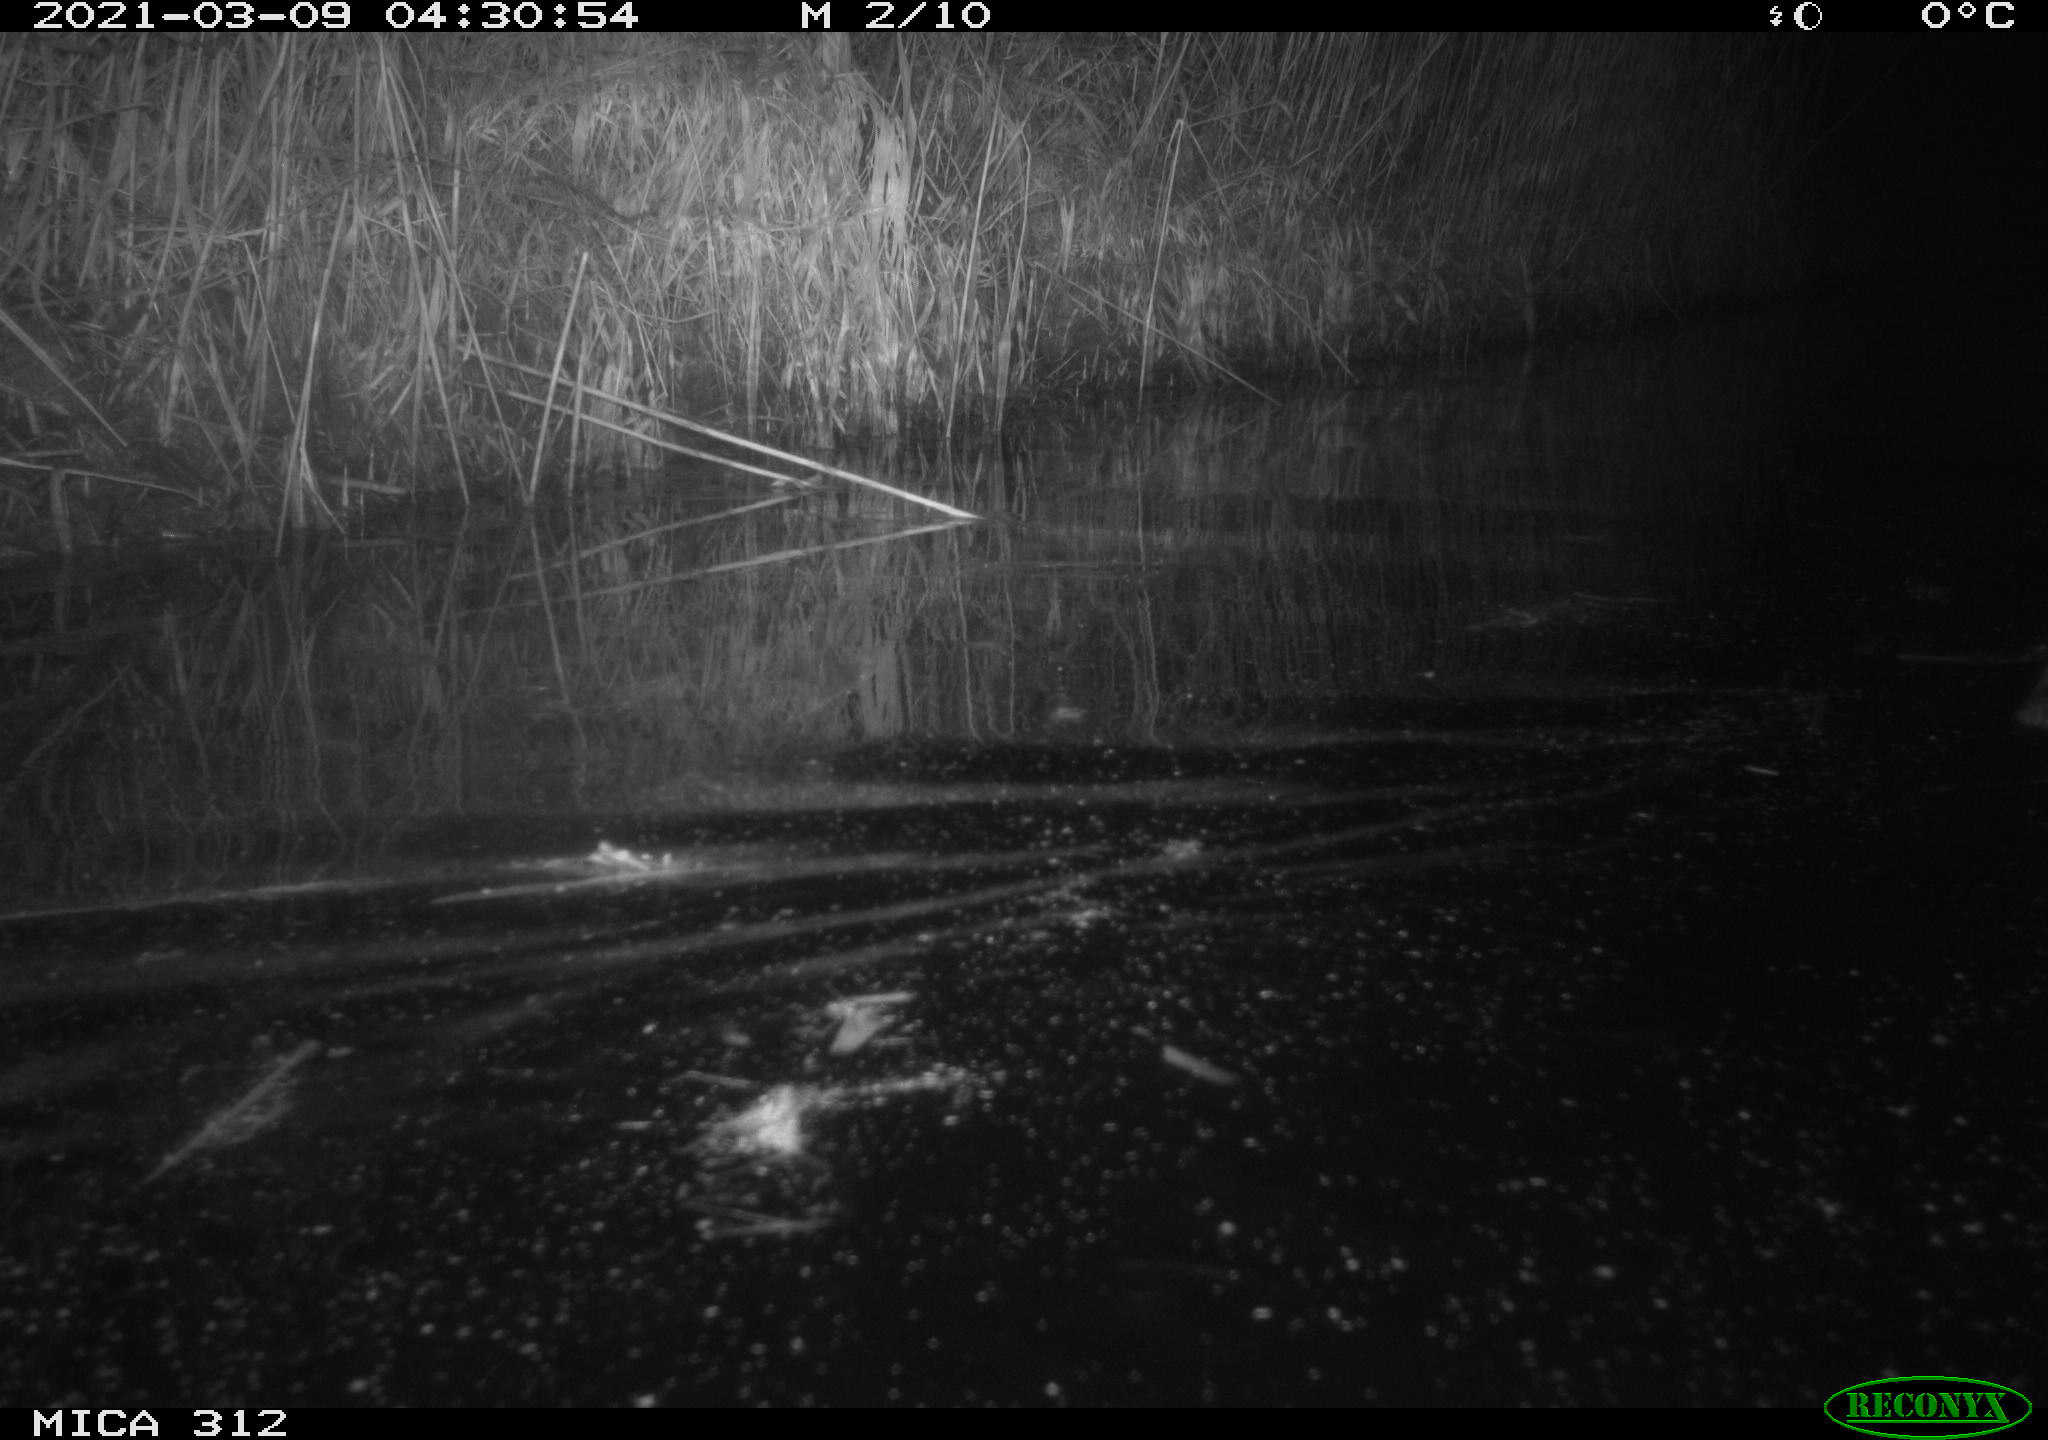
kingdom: Animalia
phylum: Chordata
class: Mammalia
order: Rodentia
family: Cricetidae
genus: Ondatra
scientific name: Ondatra zibethicus
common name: Muskrat
